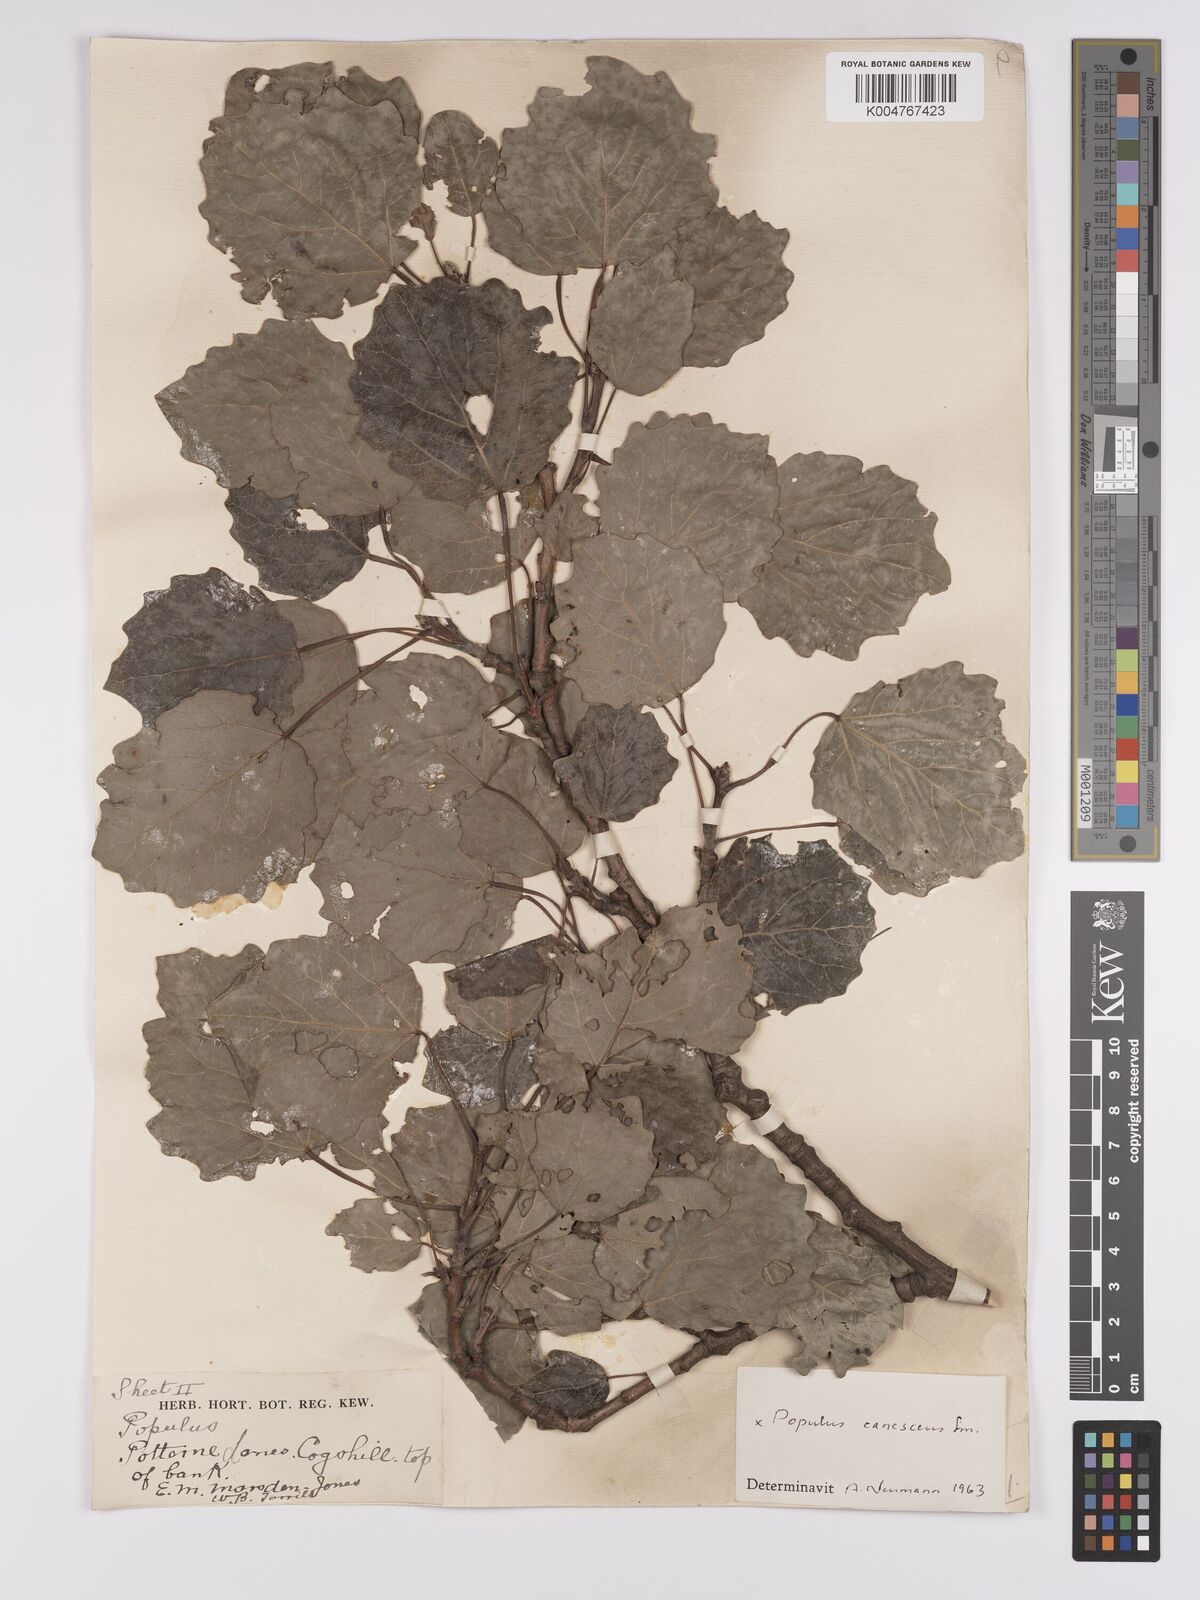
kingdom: Plantae
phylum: Tracheophyta
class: Magnoliopsida
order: Malpighiales
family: Salicaceae
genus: Populus
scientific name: Populus canescens
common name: Gray poplar
